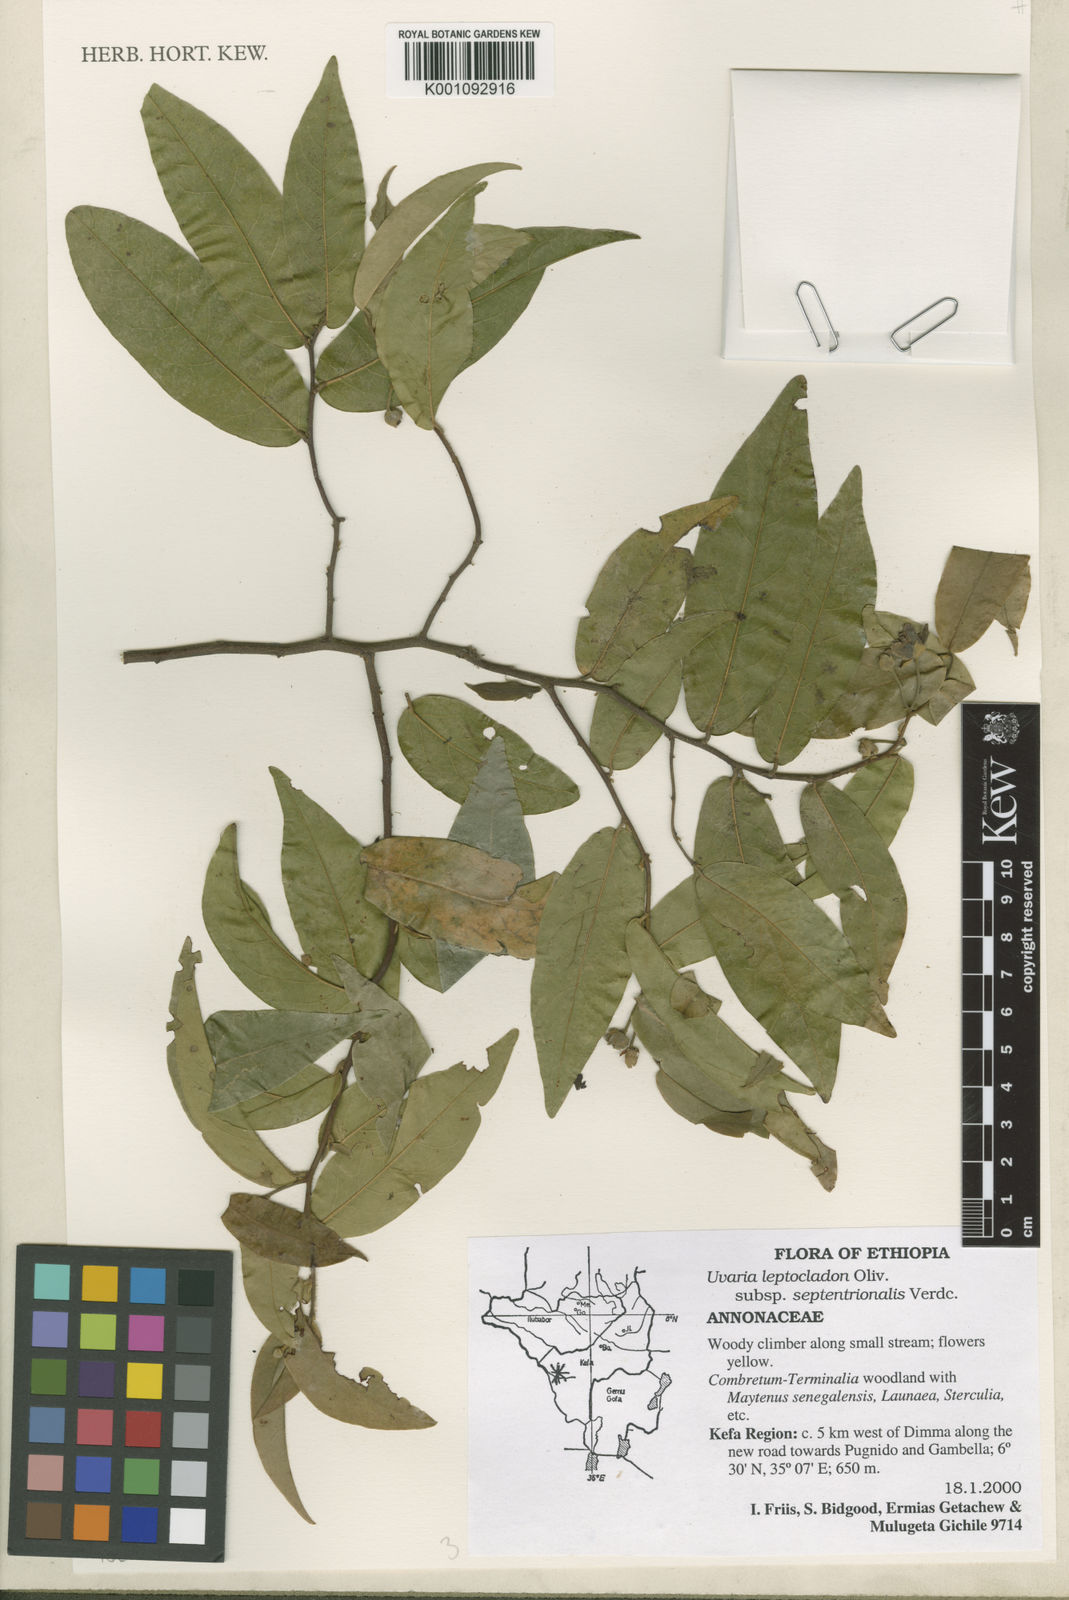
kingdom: Plantae
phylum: Tracheophyta
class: Magnoliopsida
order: Magnoliales
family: Annonaceae
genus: Uvaria
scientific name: Uvaria leptocladon
